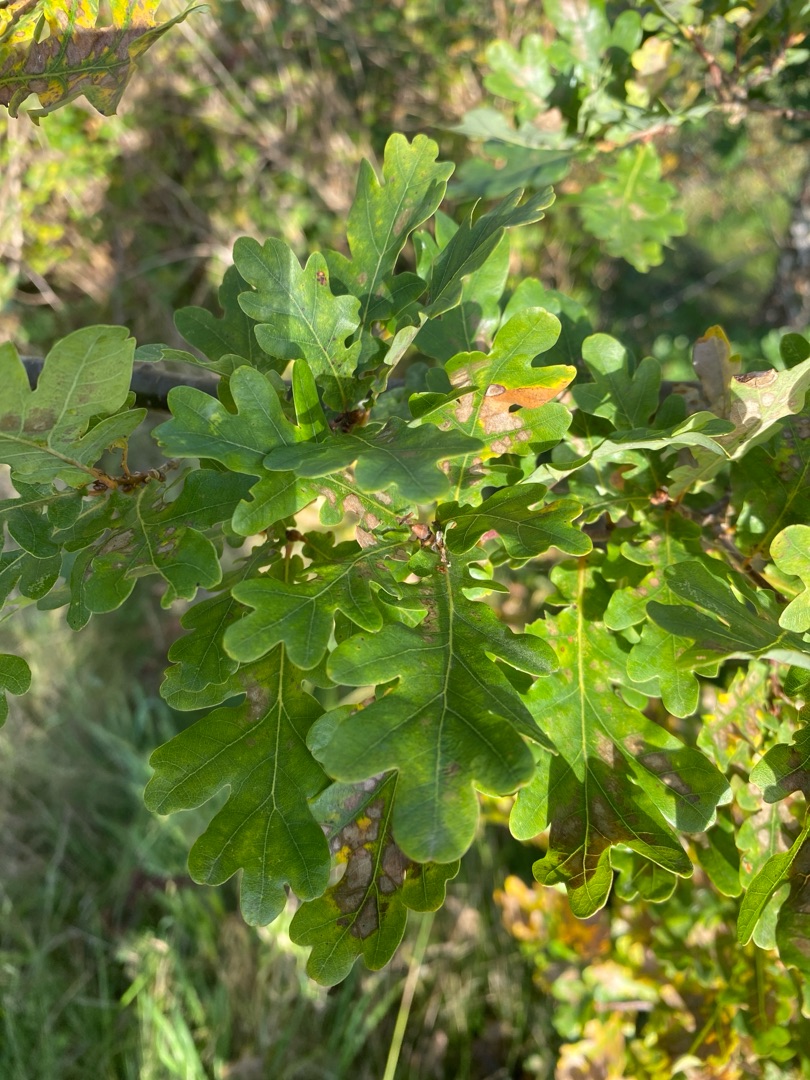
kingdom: Plantae
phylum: Tracheophyta
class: Magnoliopsida
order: Fagales
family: Fagaceae
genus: Quercus
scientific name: Quercus robur
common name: Stilk-eg/almindelig eg
